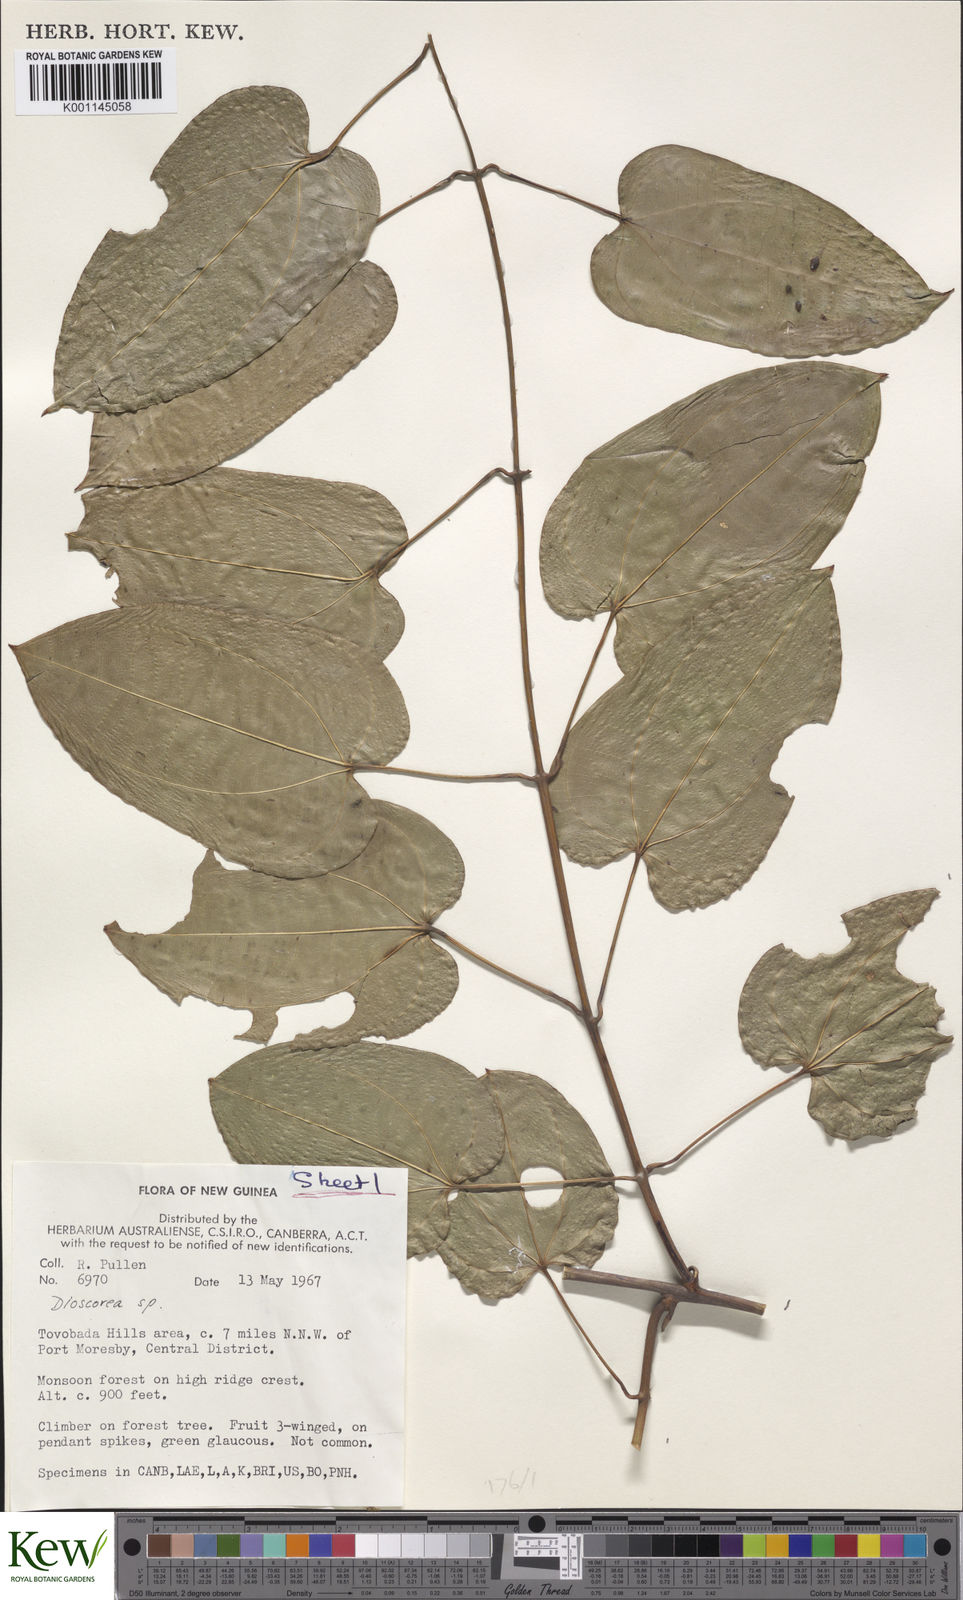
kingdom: Plantae
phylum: Tracheophyta
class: Liliopsida
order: Dioscoreales
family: Dioscoreaceae
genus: Dioscorea
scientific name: Dioscorea
